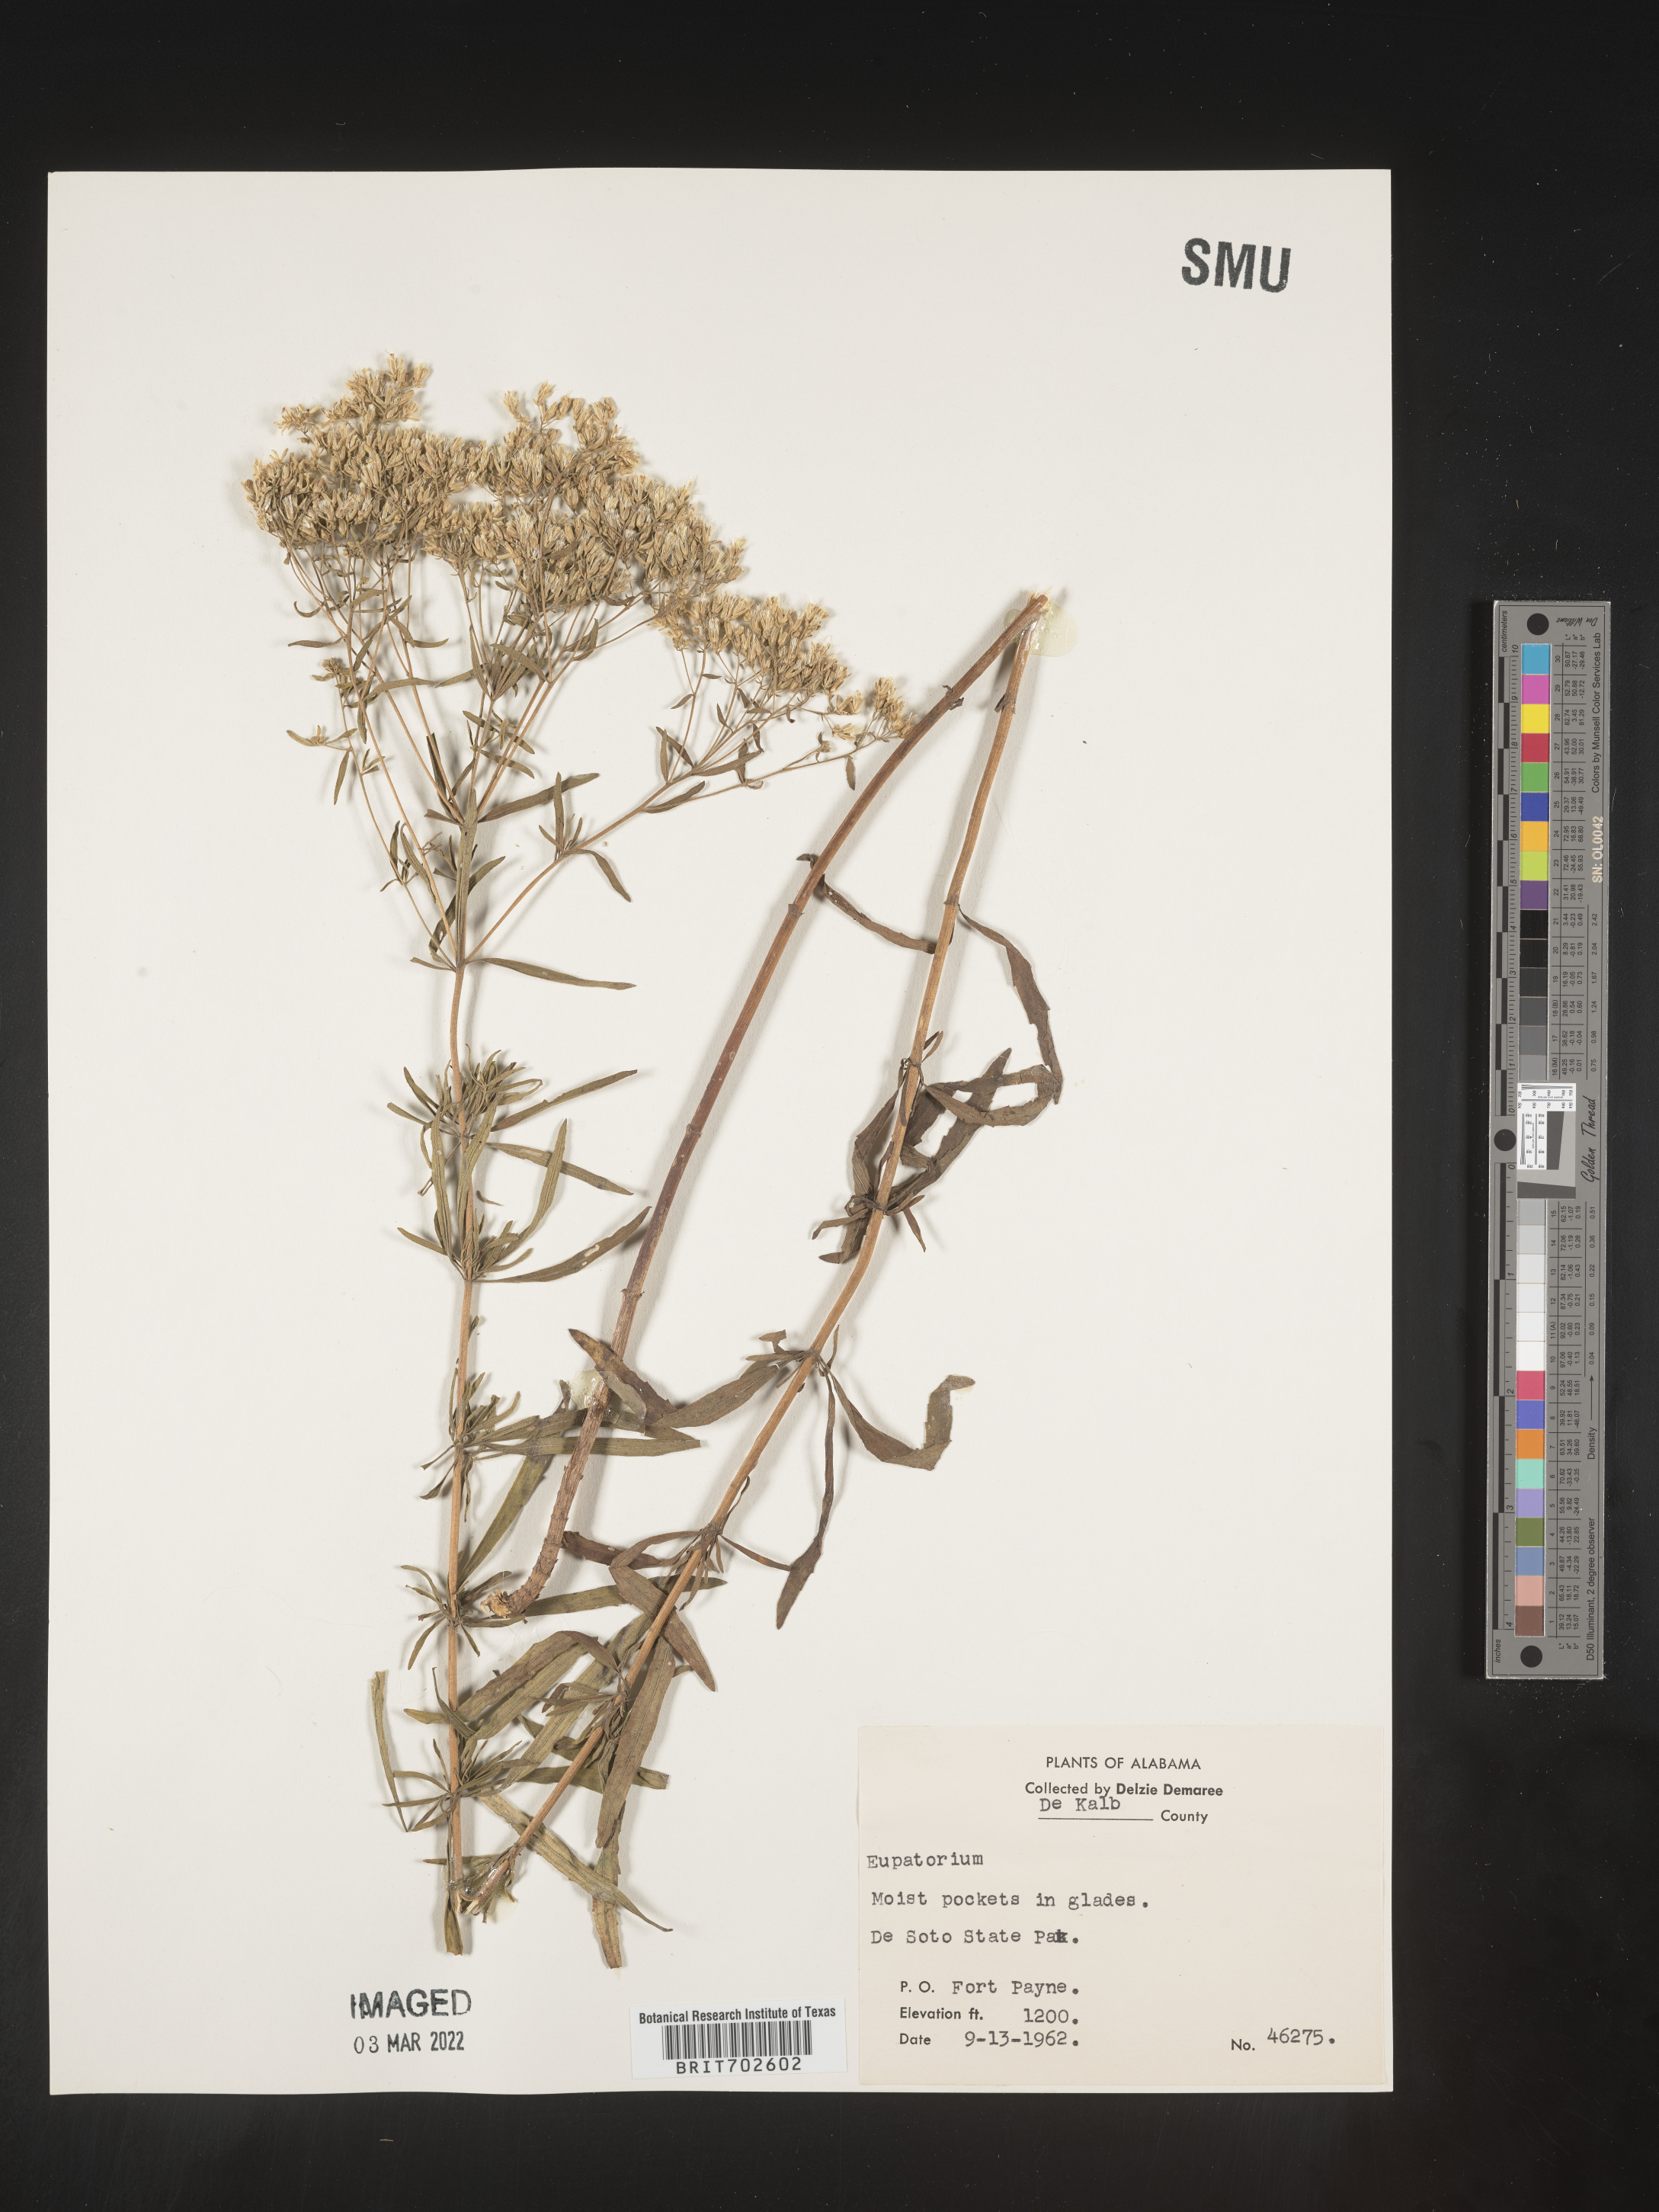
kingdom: Plantae
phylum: Tracheophyta
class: Magnoliopsida
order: Asterales
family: Asteraceae
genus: Eupatorium
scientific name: Eupatorium
